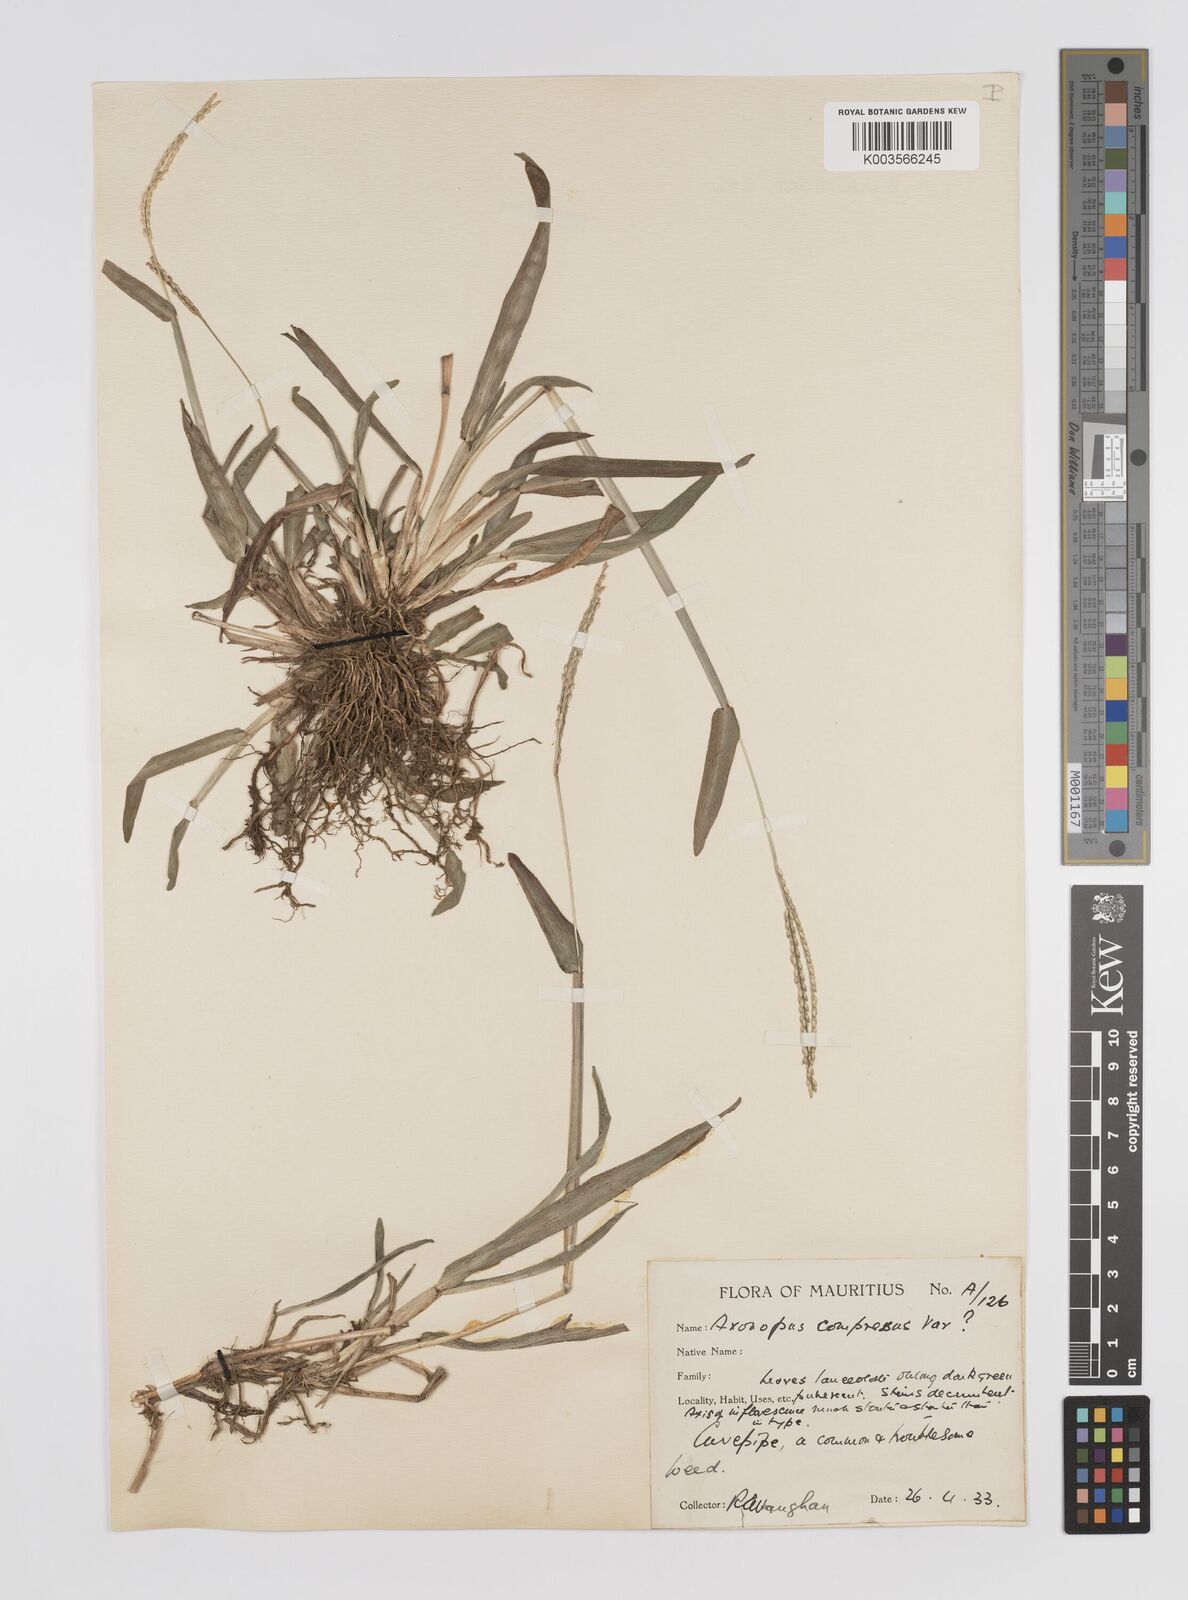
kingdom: Plantae
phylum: Tracheophyta
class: Liliopsida
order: Poales
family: Poaceae
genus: Axonopus
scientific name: Axonopus compressus
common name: American carpet grass
